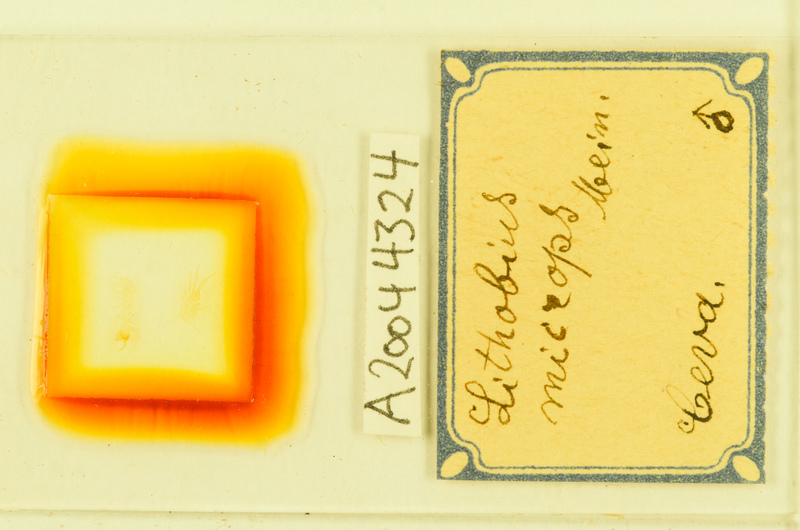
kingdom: Animalia
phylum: Arthropoda
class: Chilopoda
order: Lithobiomorpha
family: Lithobiidae
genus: Lithobius
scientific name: Lithobius microps
